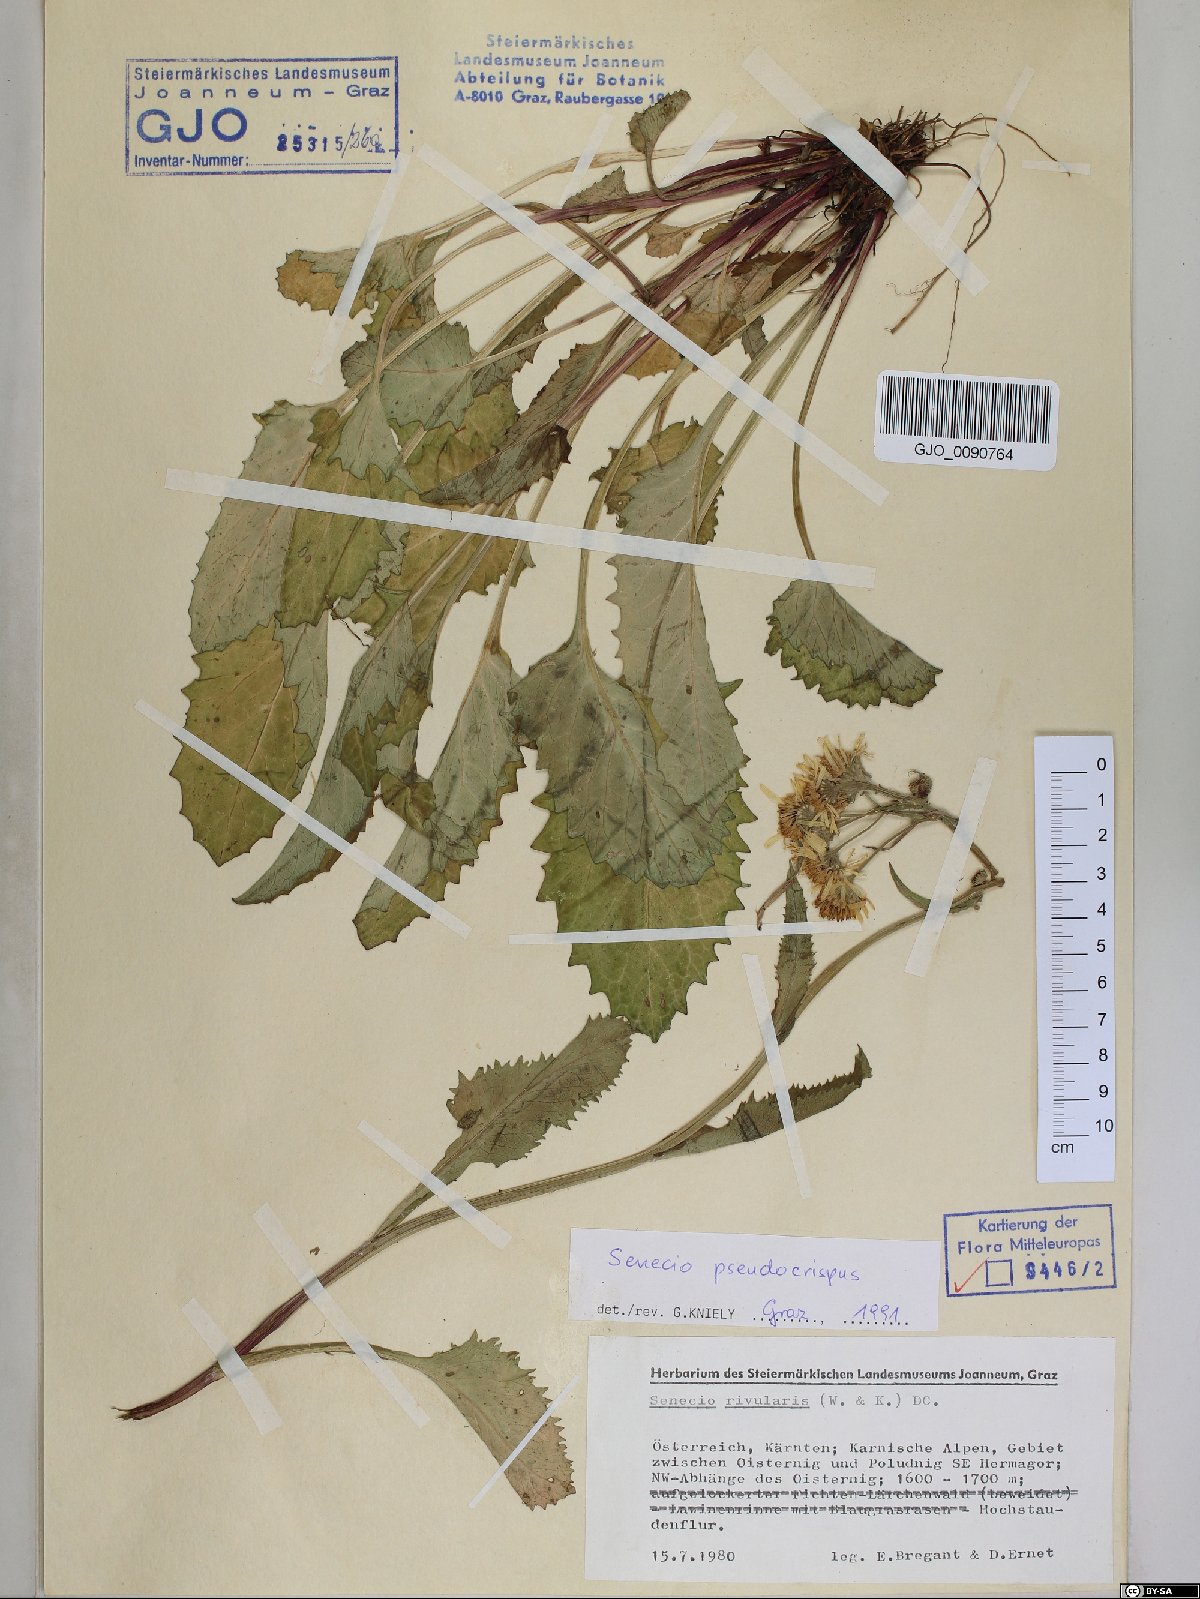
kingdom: Plantae
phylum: Tracheophyta
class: Magnoliopsida
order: Asterales
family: Asteraceae
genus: Tephroseris
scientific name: Tephroseris longifolia
